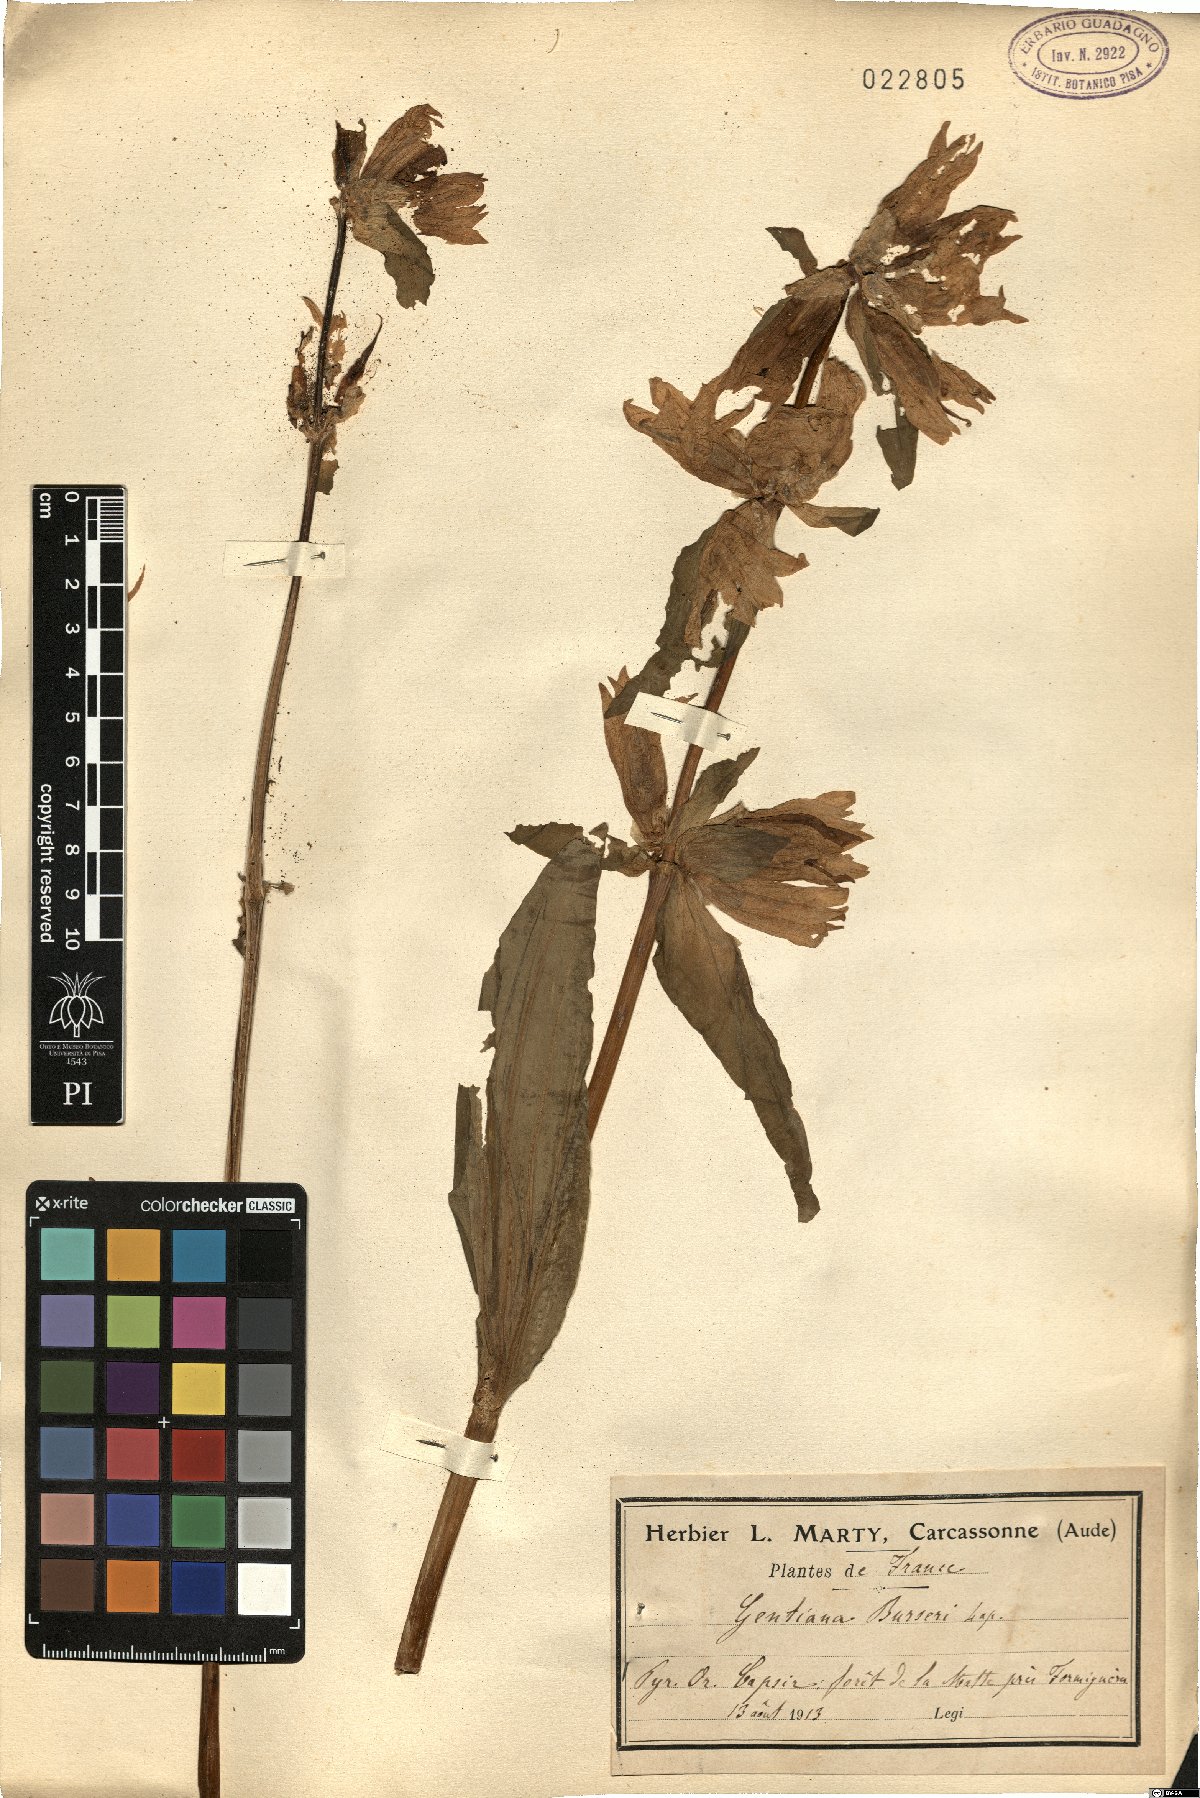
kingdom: Plantae
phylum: Tracheophyta
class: Magnoliopsida
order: Gentianales
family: Gentianaceae
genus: Gentiana
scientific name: Gentiana burseri
